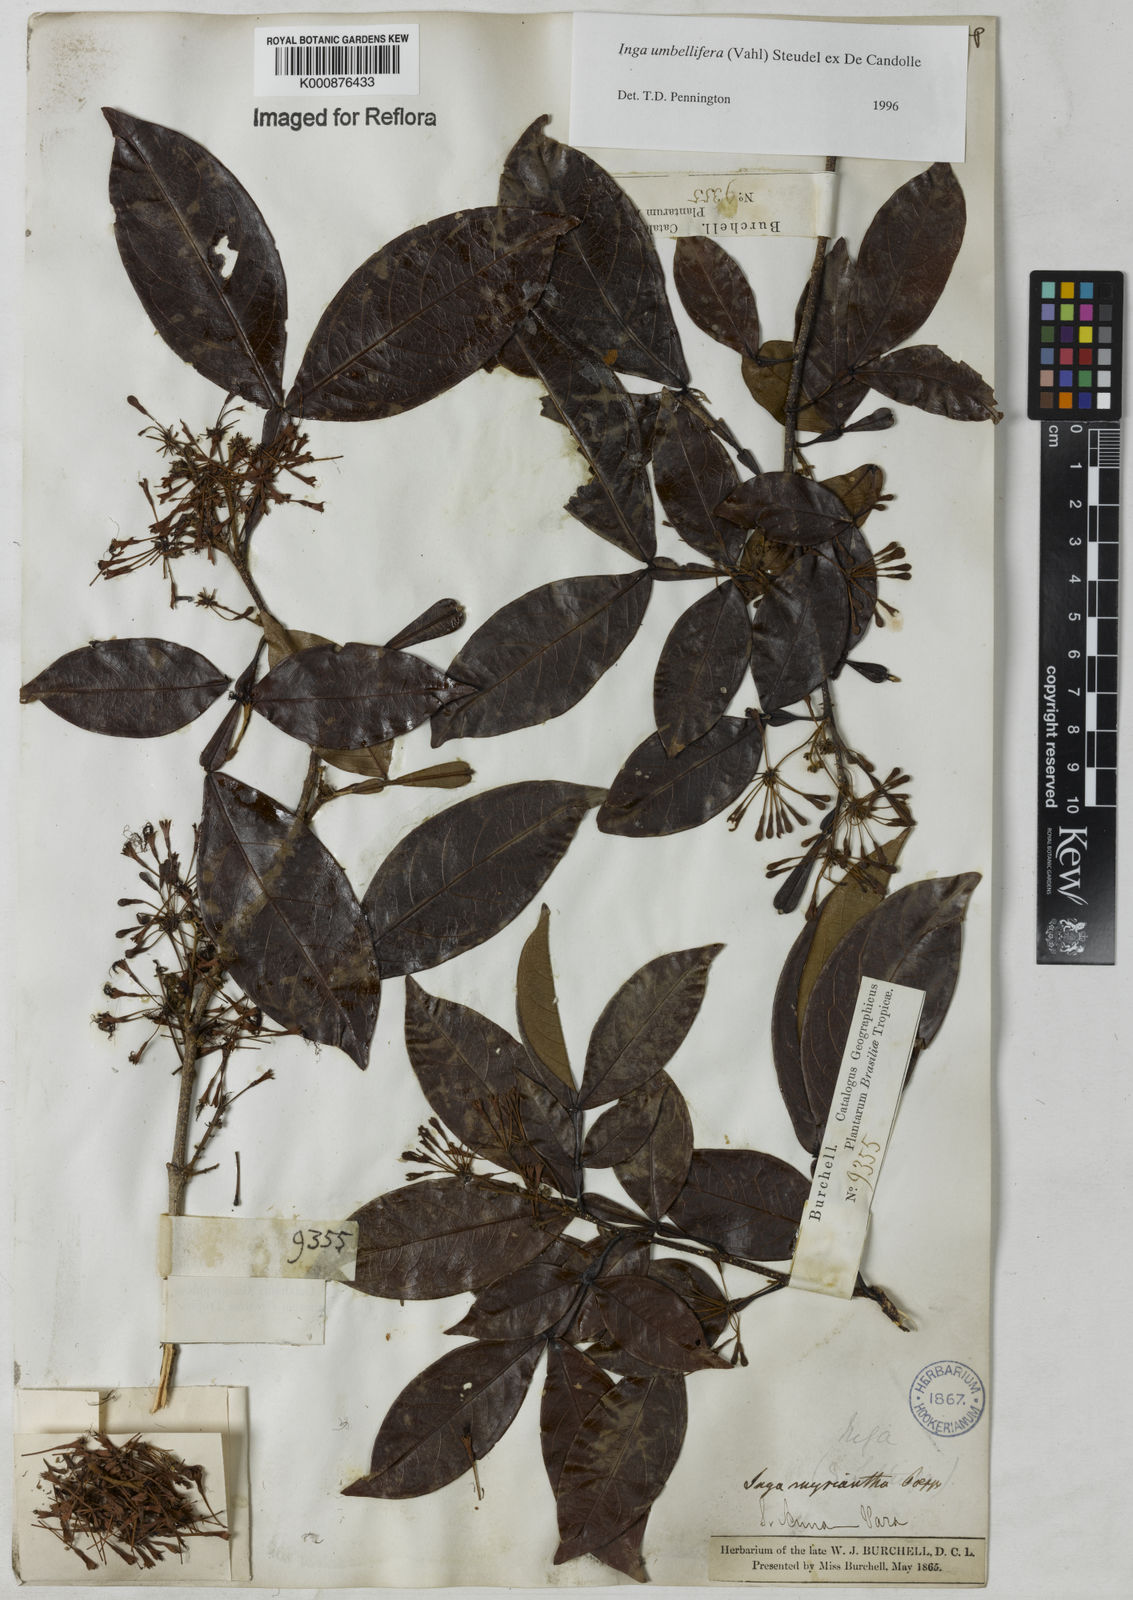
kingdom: Plantae
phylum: Tracheophyta
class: Magnoliopsida
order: Fabales
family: Fabaceae
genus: Inga
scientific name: Inga umbellifera
